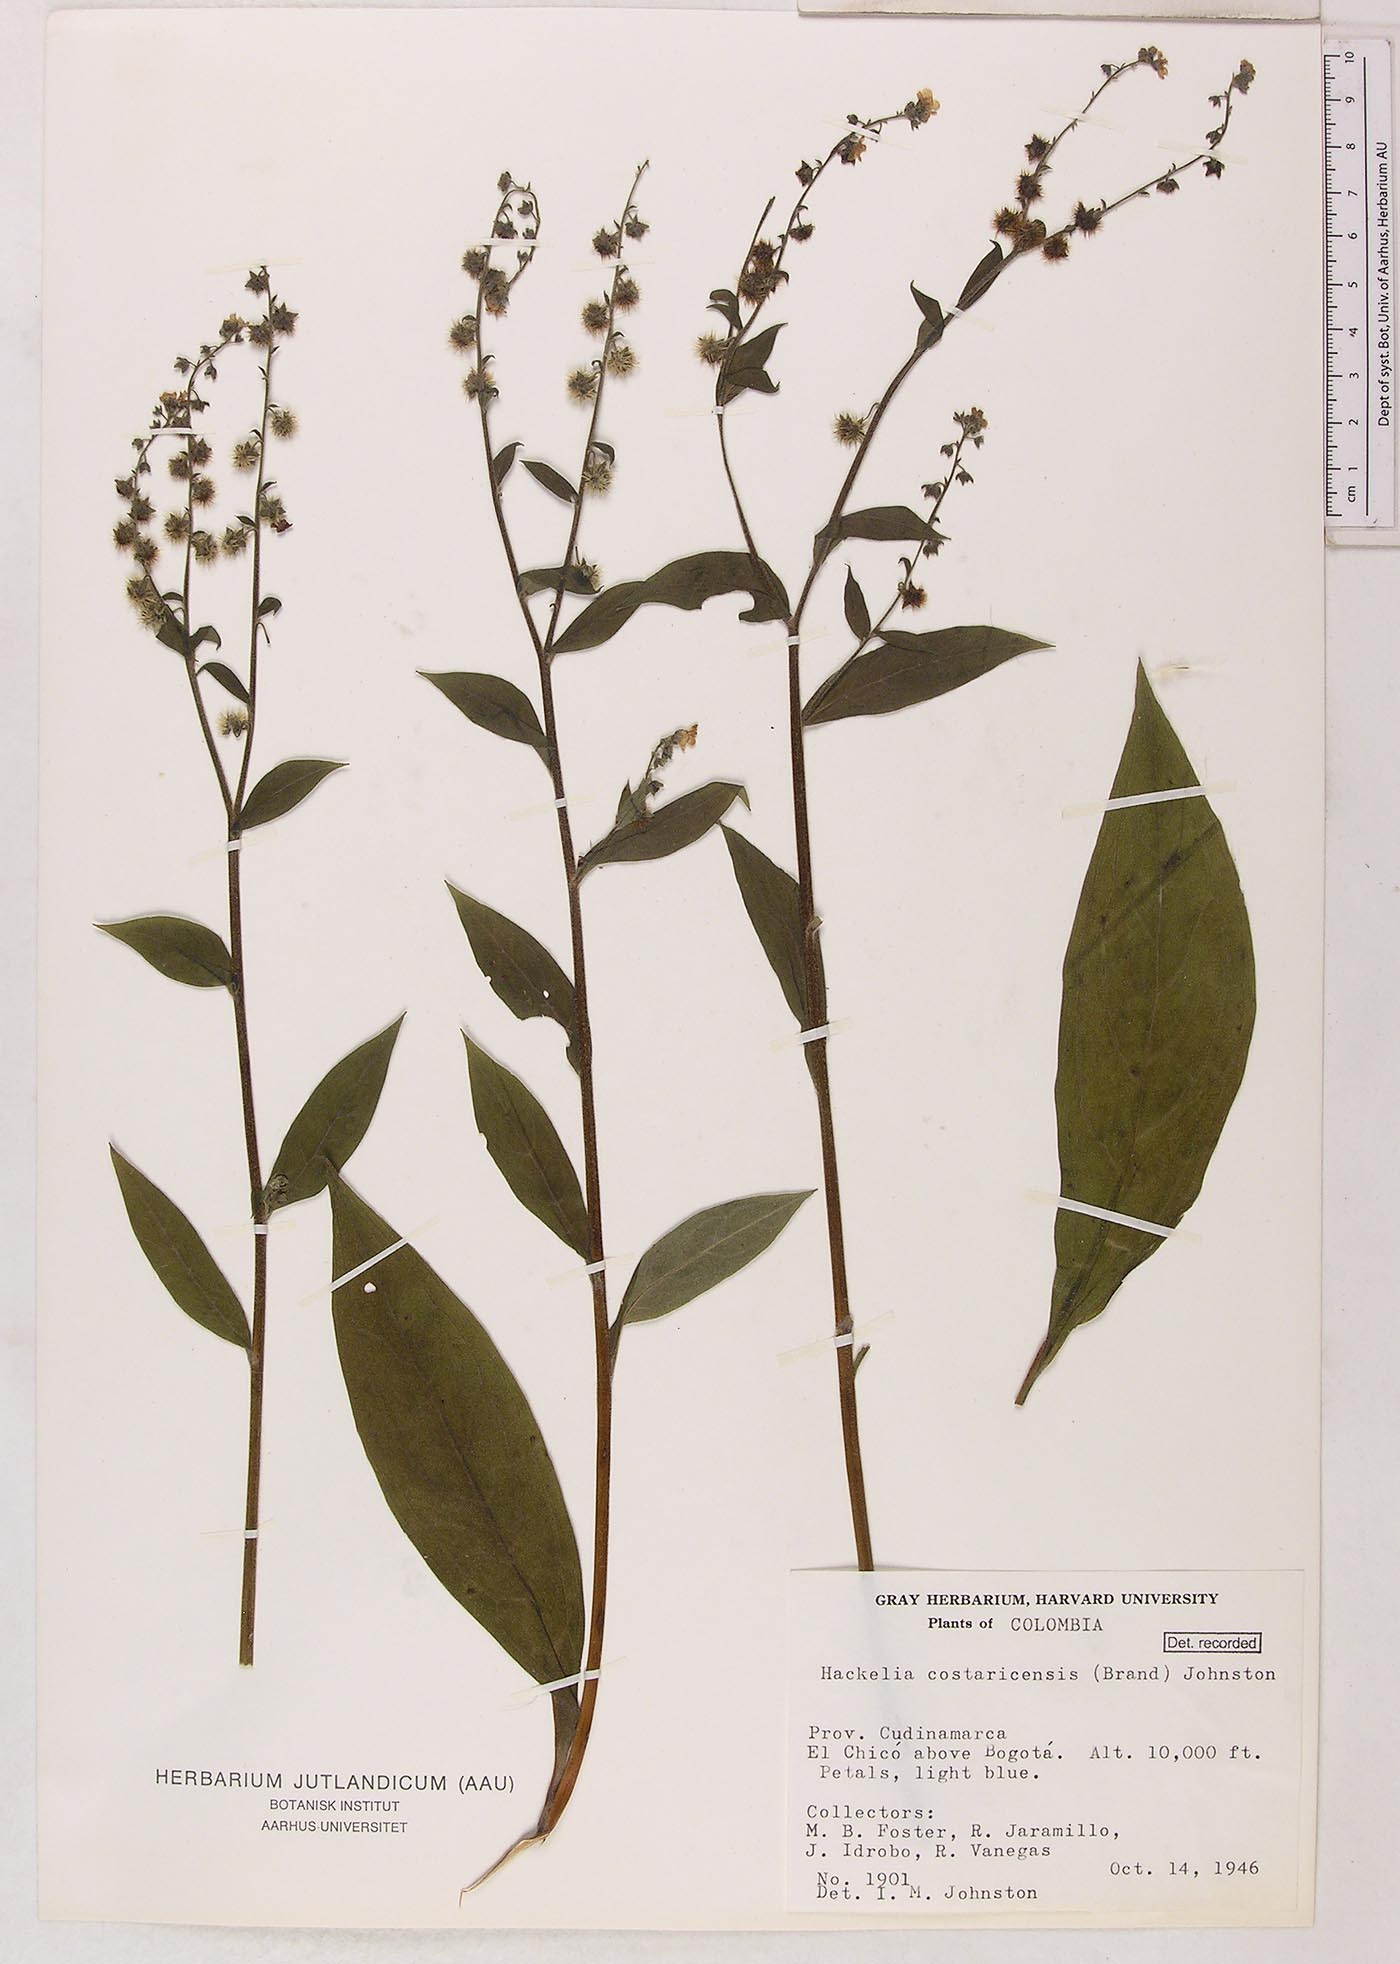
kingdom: Plantae
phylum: Tracheophyta
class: Magnoliopsida
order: Boraginales
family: Boraginaceae
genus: Hackelia
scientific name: Hackelia revoluta
